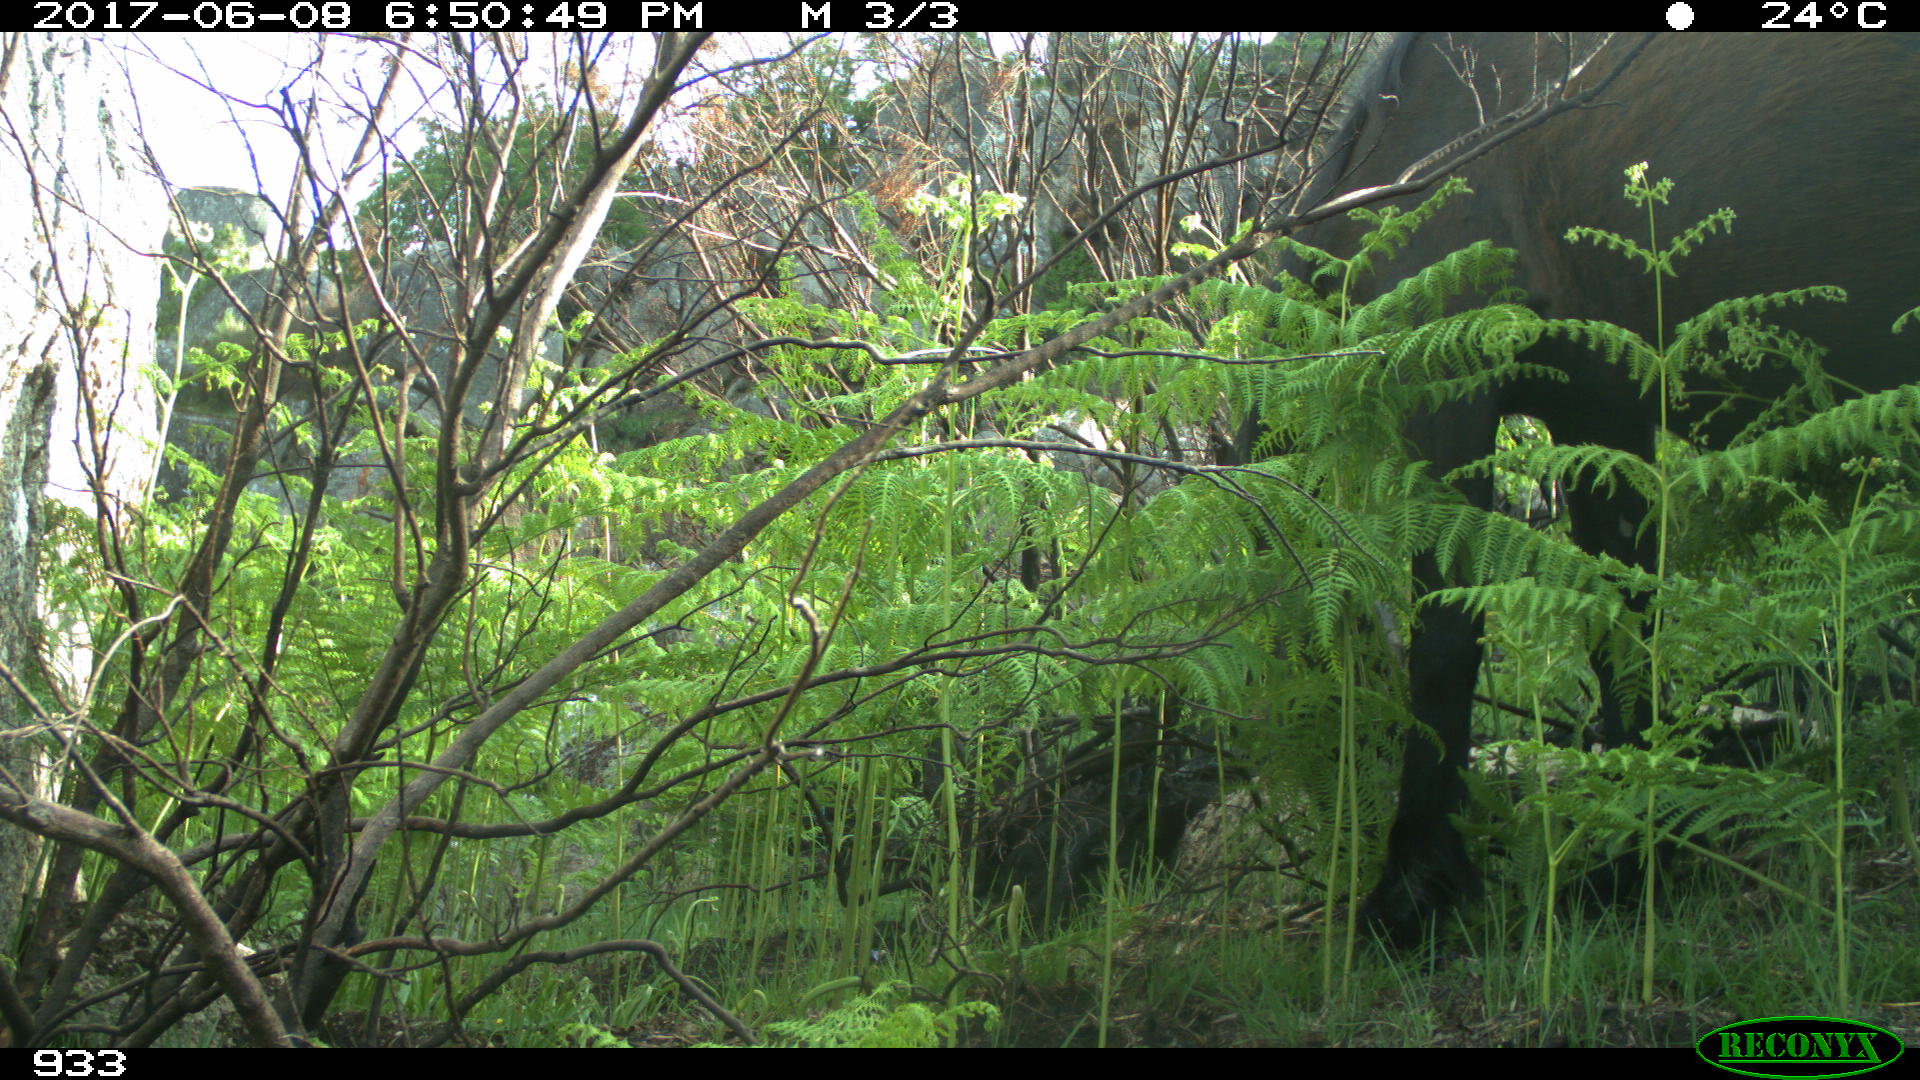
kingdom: Animalia
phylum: Chordata
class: Mammalia
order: Perissodactyla
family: Equidae
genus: Equus
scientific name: Equus caballus
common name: Horse
